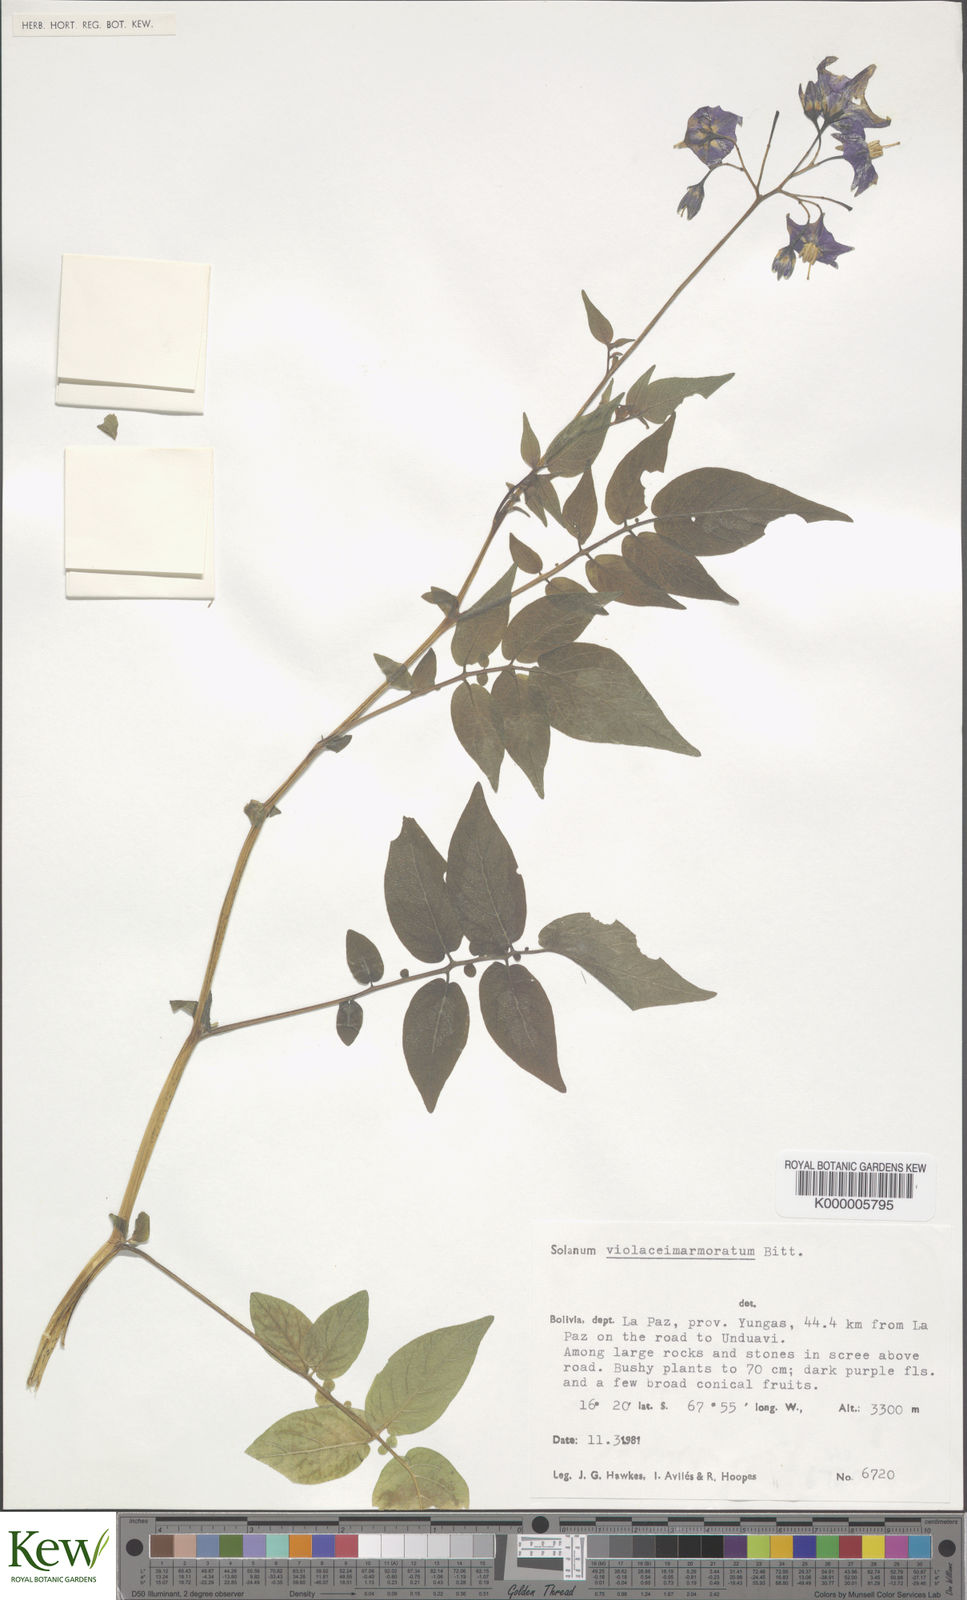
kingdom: Plantae
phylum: Tracheophyta
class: Magnoliopsida
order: Solanales
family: Solanaceae
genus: Solanum
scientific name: Solanum violaceimarmoratum
